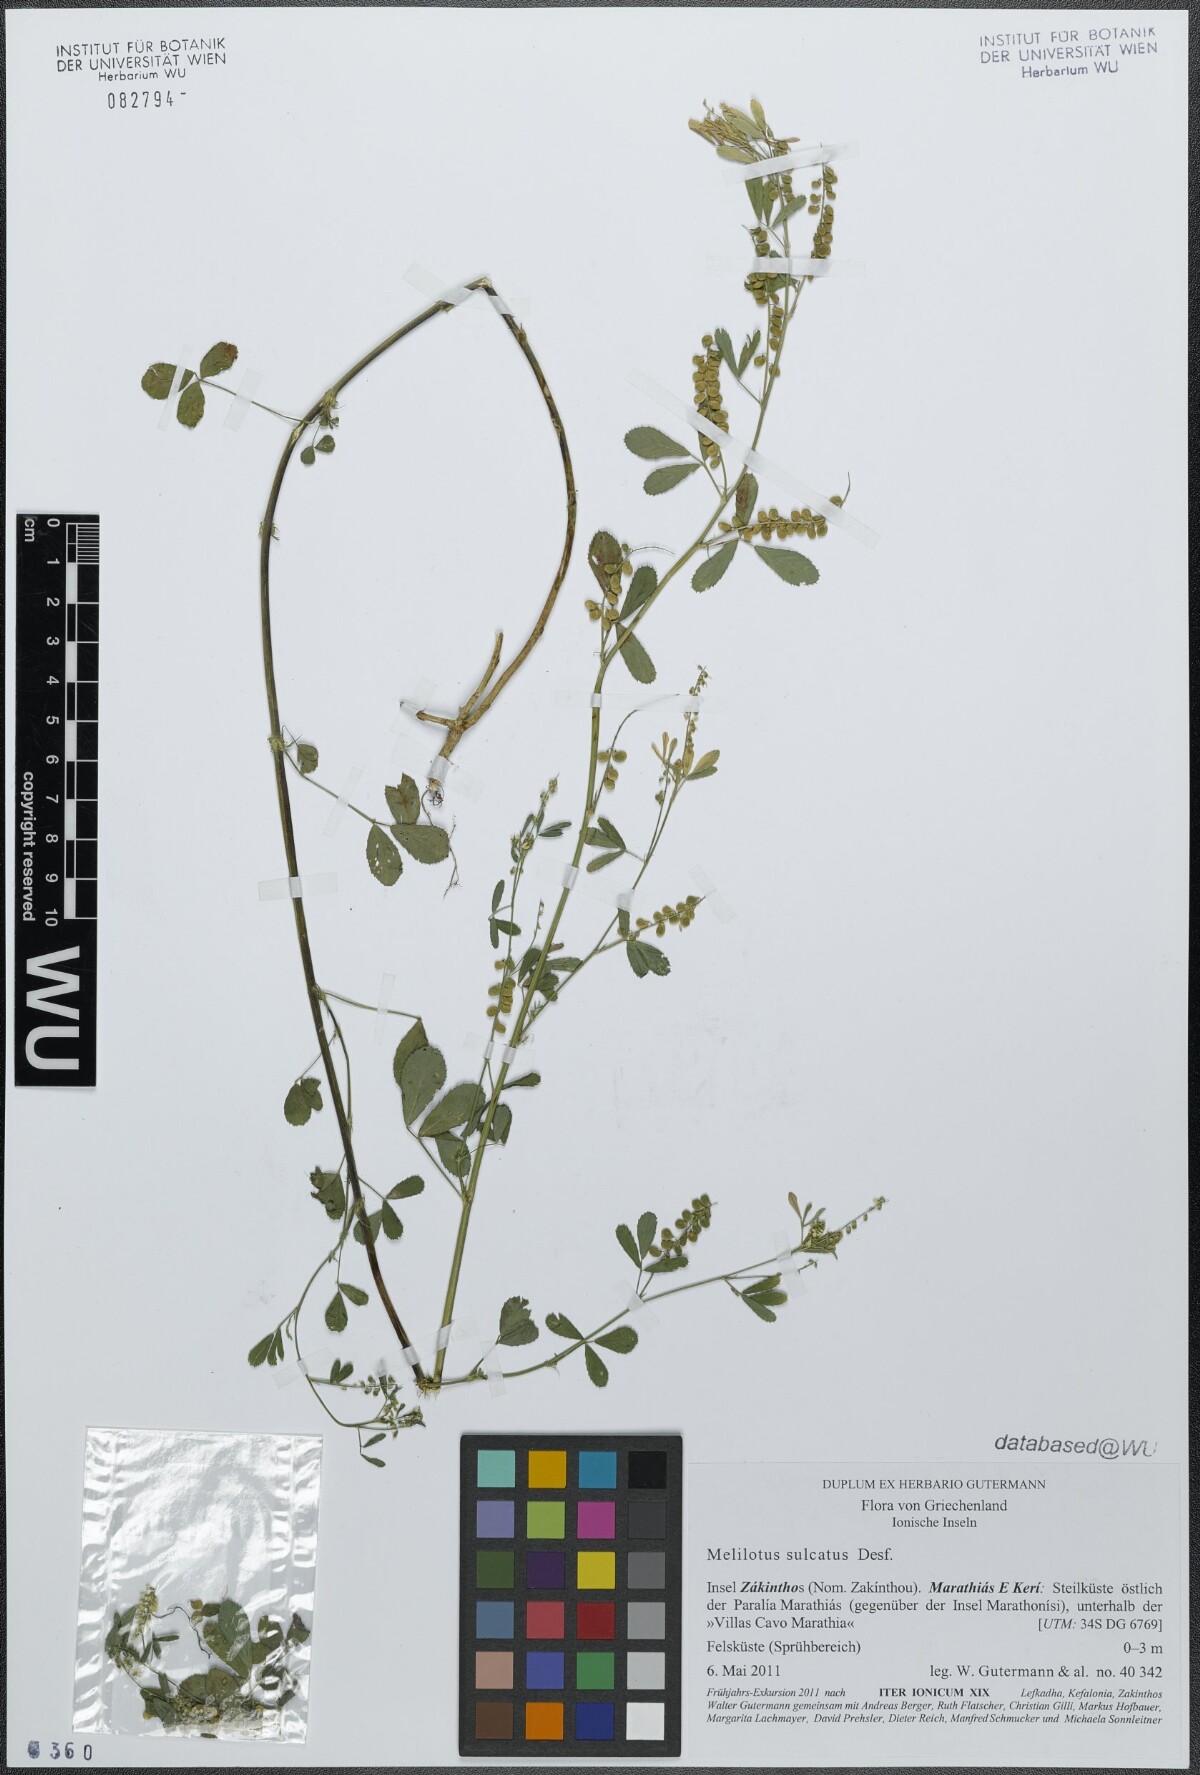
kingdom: Plantae
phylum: Tracheophyta
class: Magnoliopsida
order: Fabales
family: Fabaceae
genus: Melilotus
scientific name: Melilotus sulcatus
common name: Furrowed melilot
